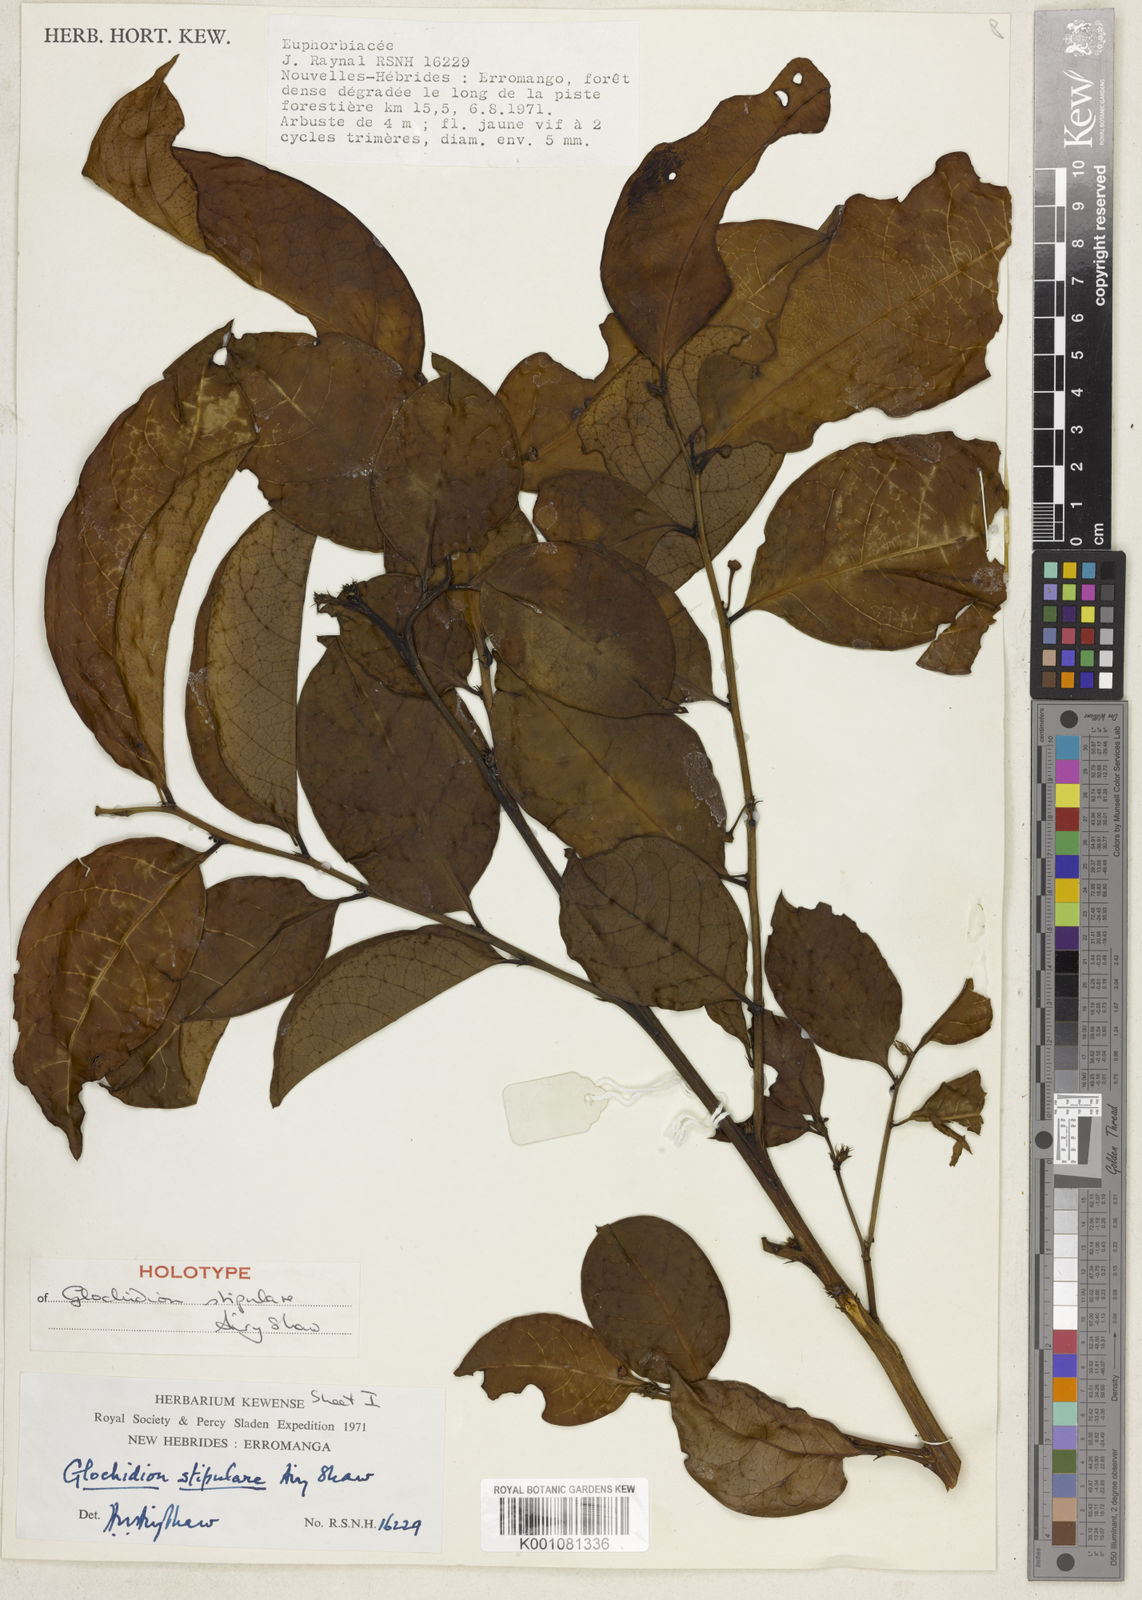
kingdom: Plantae
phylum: Tracheophyta
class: Magnoliopsida
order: Malpighiales
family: Phyllanthaceae
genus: Glochidion
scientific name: Glochidion stipulare
